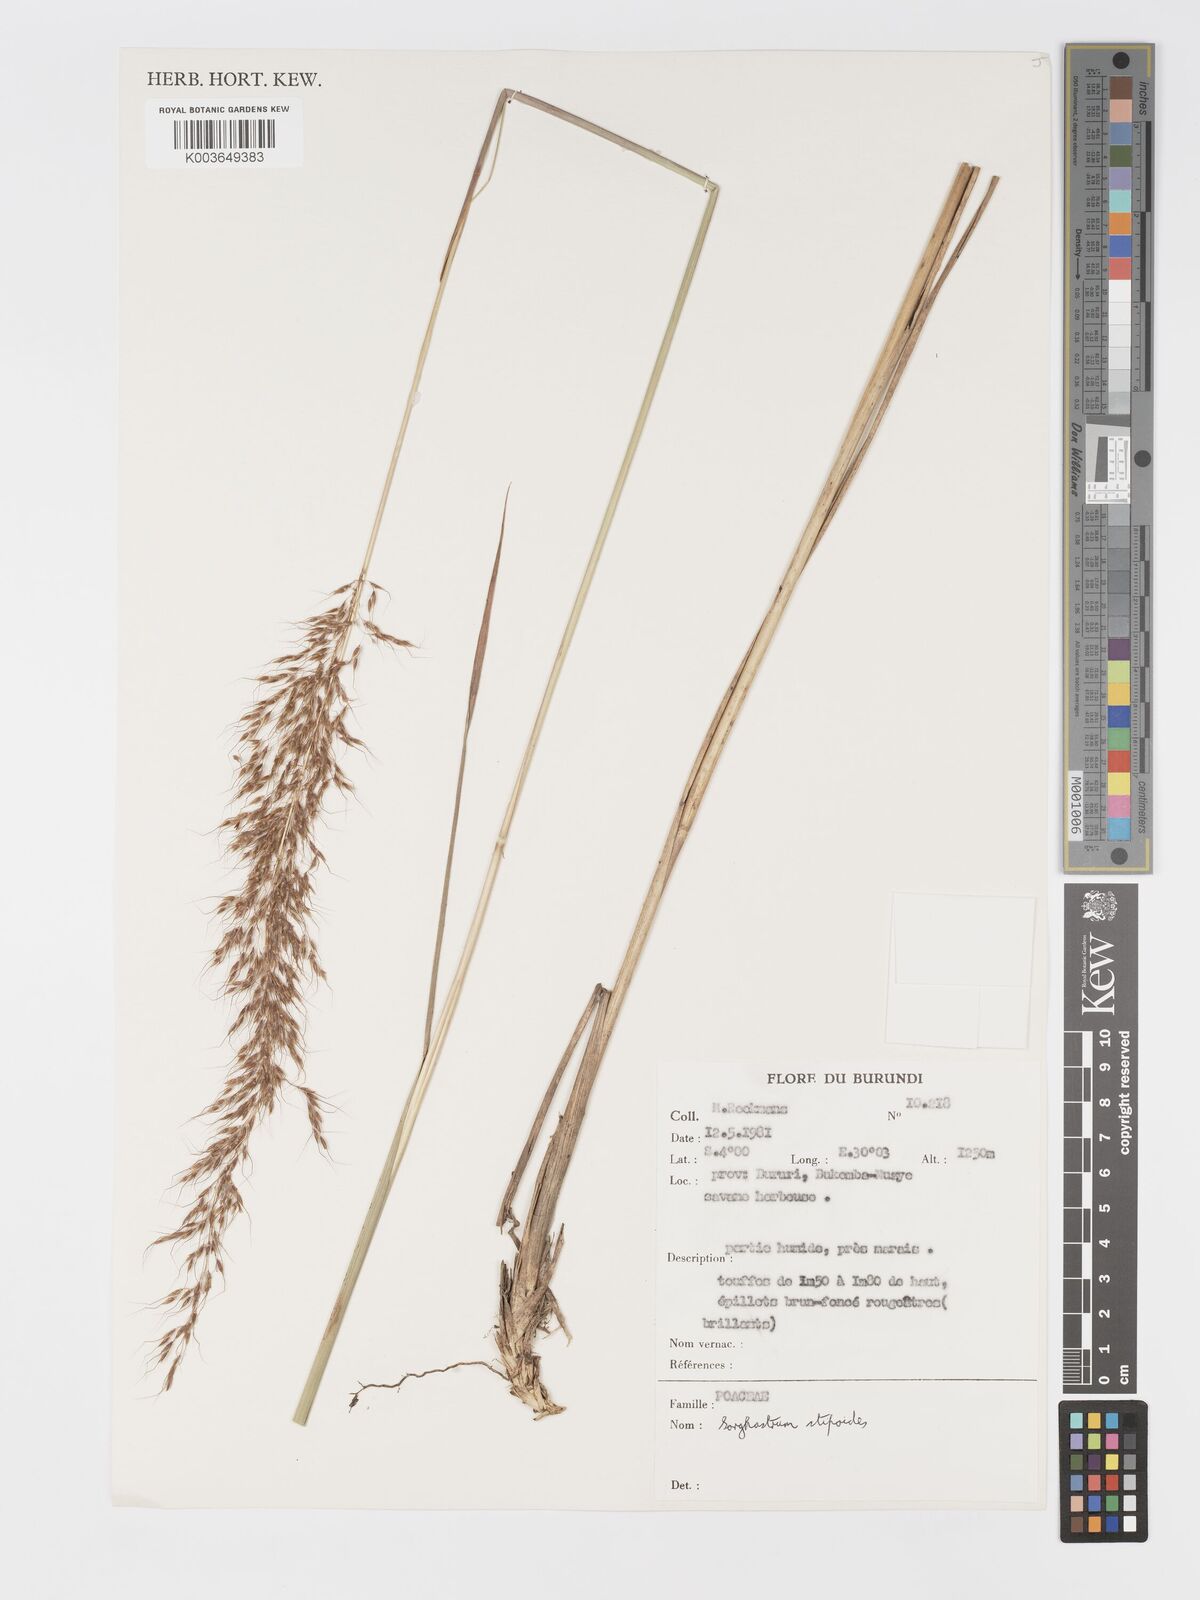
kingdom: Plantae
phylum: Tracheophyta
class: Liliopsida
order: Poales
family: Poaceae
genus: Sorghastrum
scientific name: Sorghastrum stipoides
